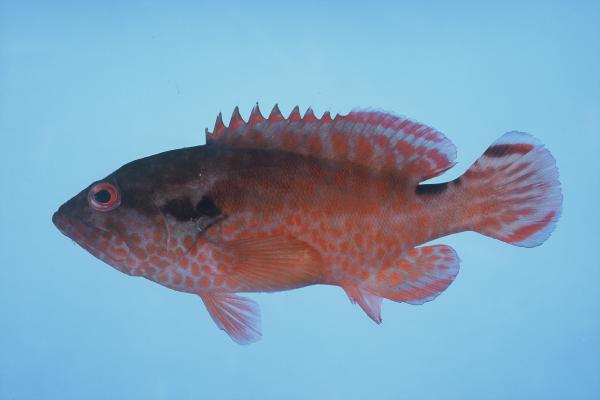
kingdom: Animalia
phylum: Chordata
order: Perciformes
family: Serranidae
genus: Cephalopholis
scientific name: Cephalopholis leopardus
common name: Leopard hind
